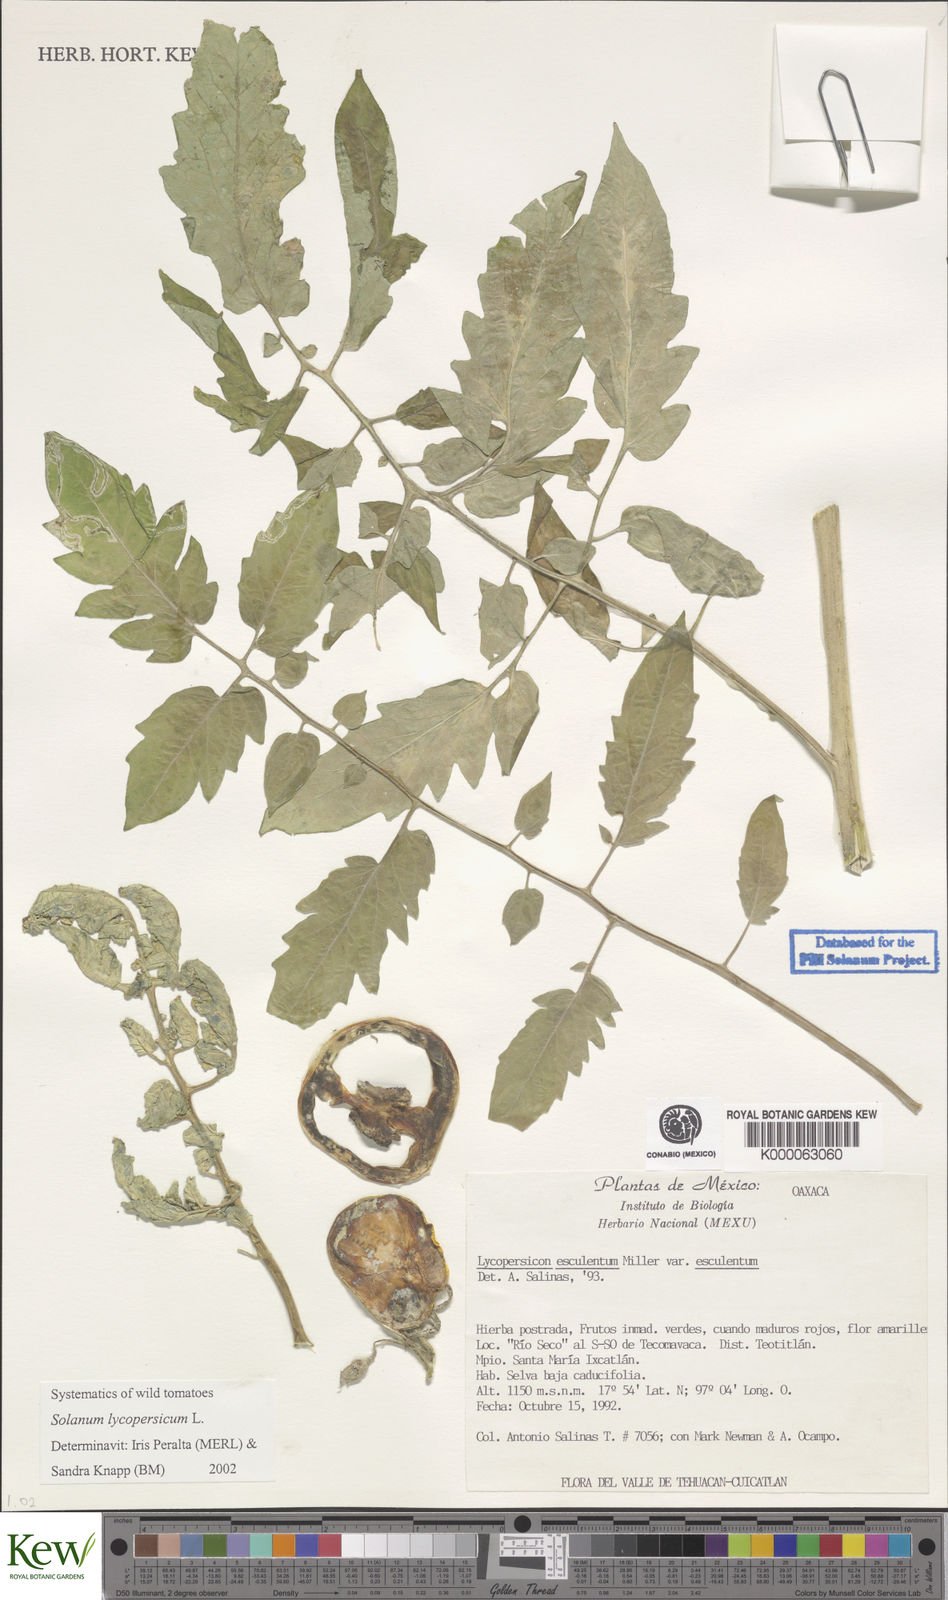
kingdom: Plantae
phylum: Tracheophyta
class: Magnoliopsida
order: Solanales
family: Solanaceae
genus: Lycopersicon
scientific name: Lycopersicon
